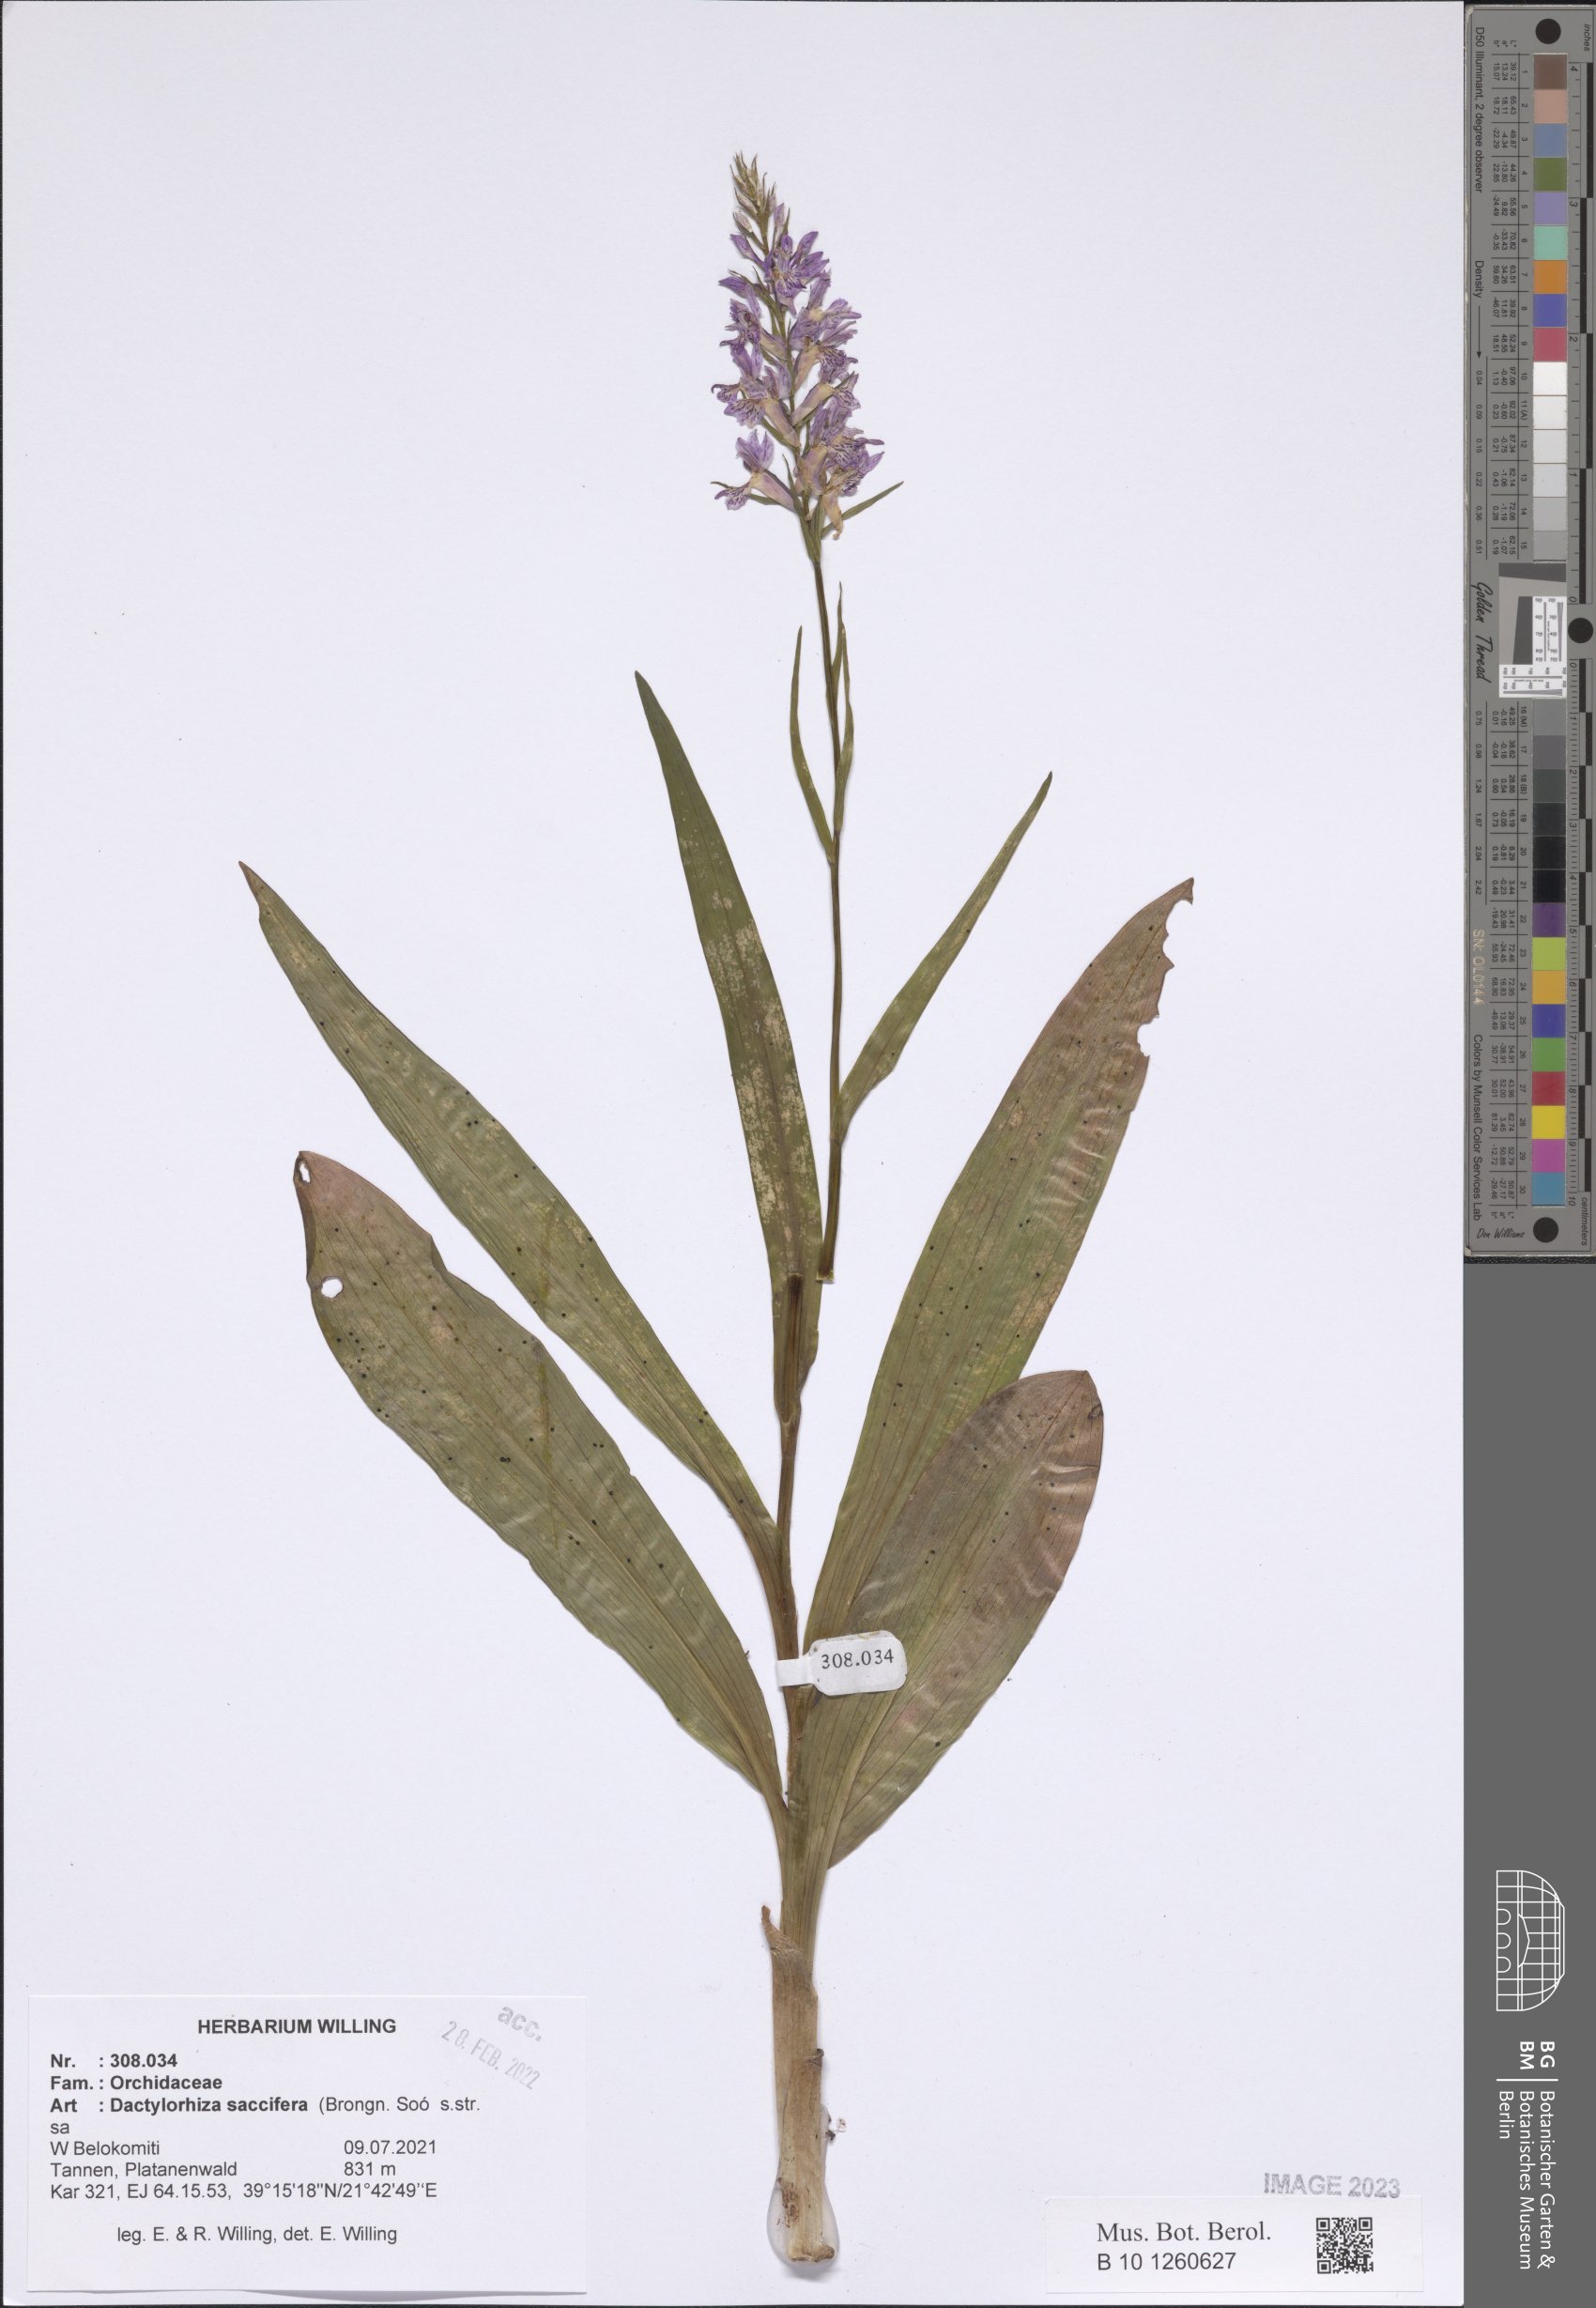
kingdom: Plantae
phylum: Tracheophyta
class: Liliopsida
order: Asparagales
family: Orchidaceae
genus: Dactylorhiza
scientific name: Dactylorhiza maculata
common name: Heath spotted-orchid
